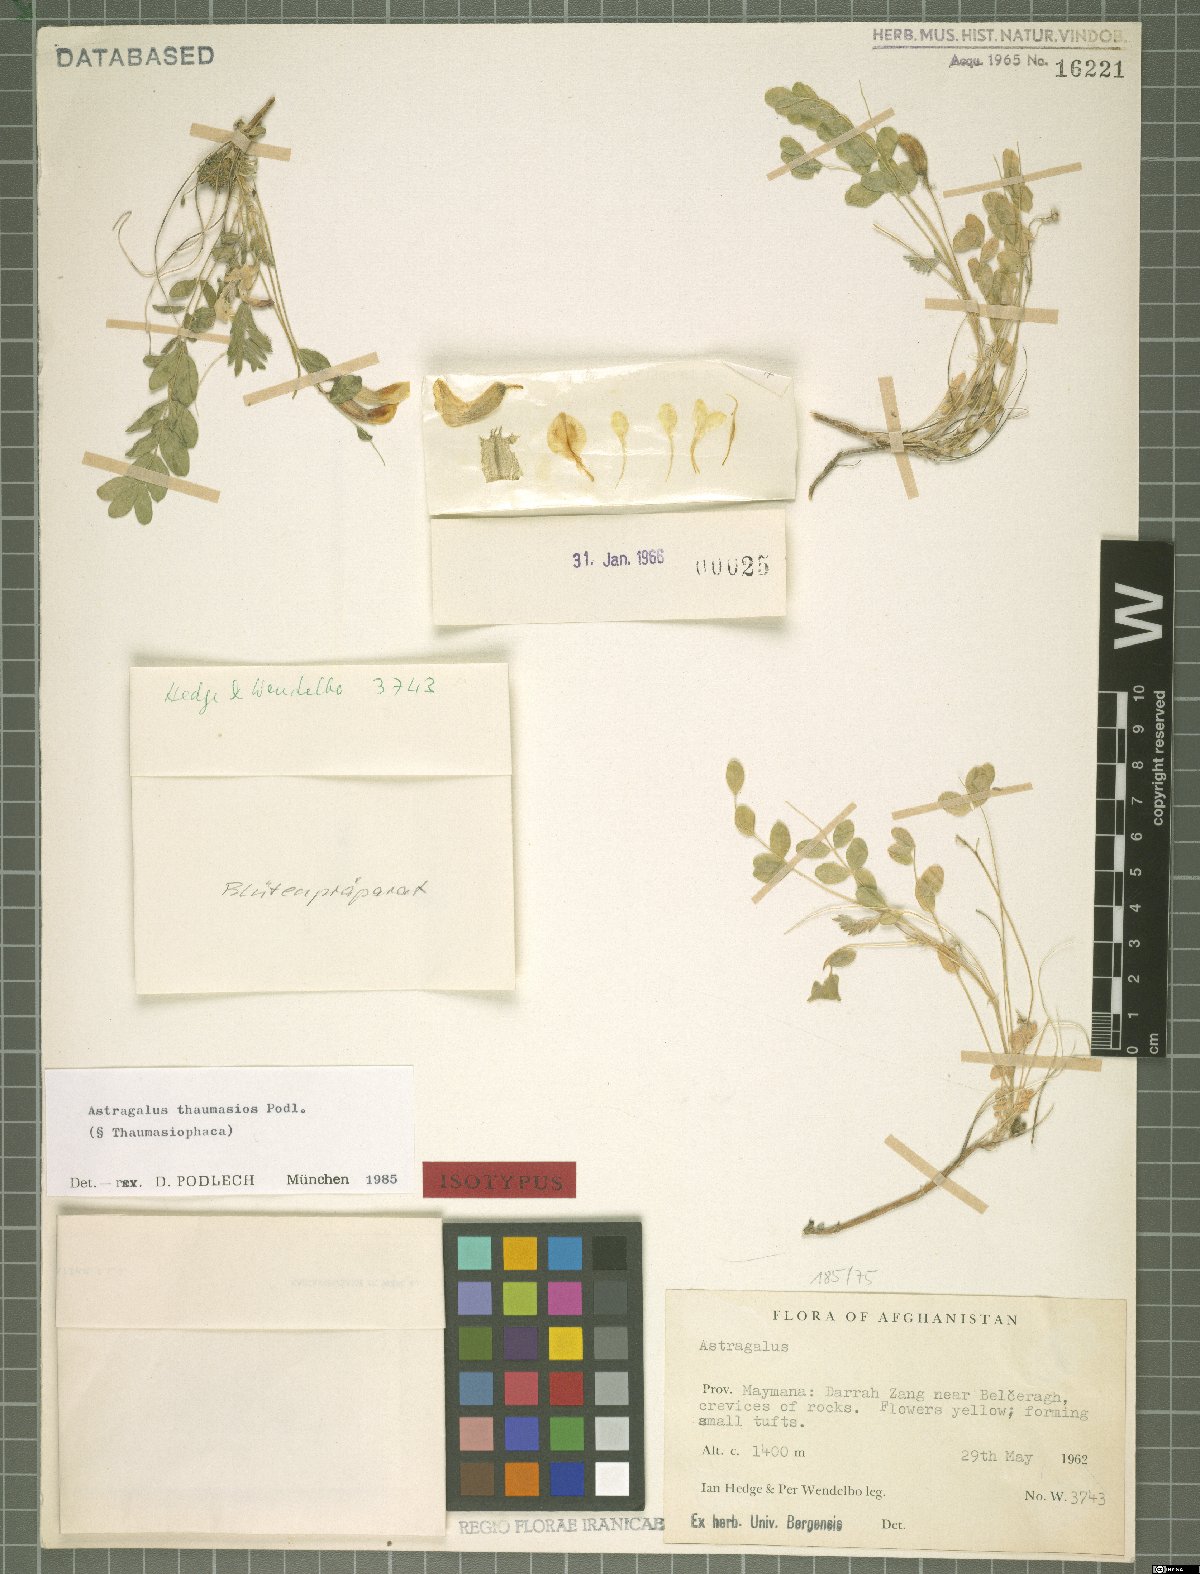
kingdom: Plantae
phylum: Tracheophyta
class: Magnoliopsida
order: Fabales
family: Fabaceae
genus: Astragalus
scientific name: Astragalus thaumasios
